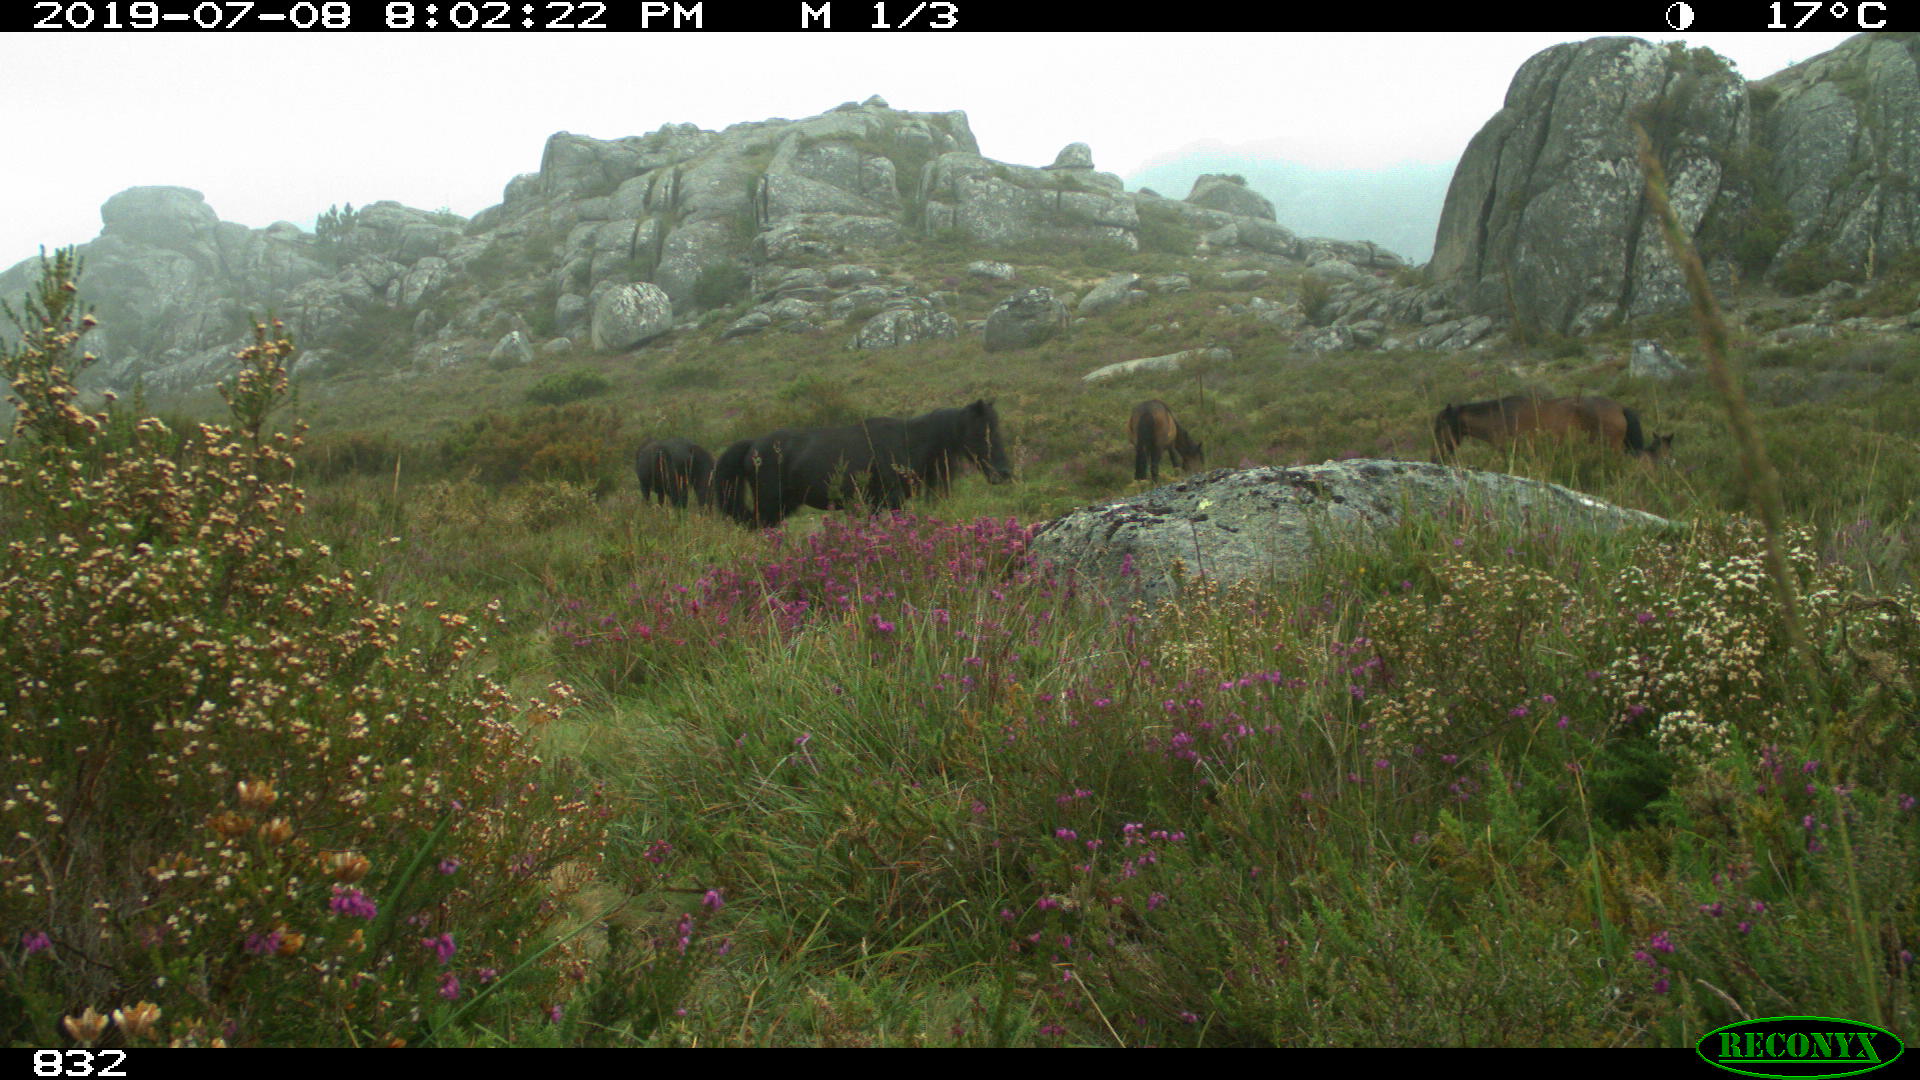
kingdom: Animalia
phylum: Chordata
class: Mammalia
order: Perissodactyla
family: Equidae
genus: Equus
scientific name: Equus caballus
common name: Horse
